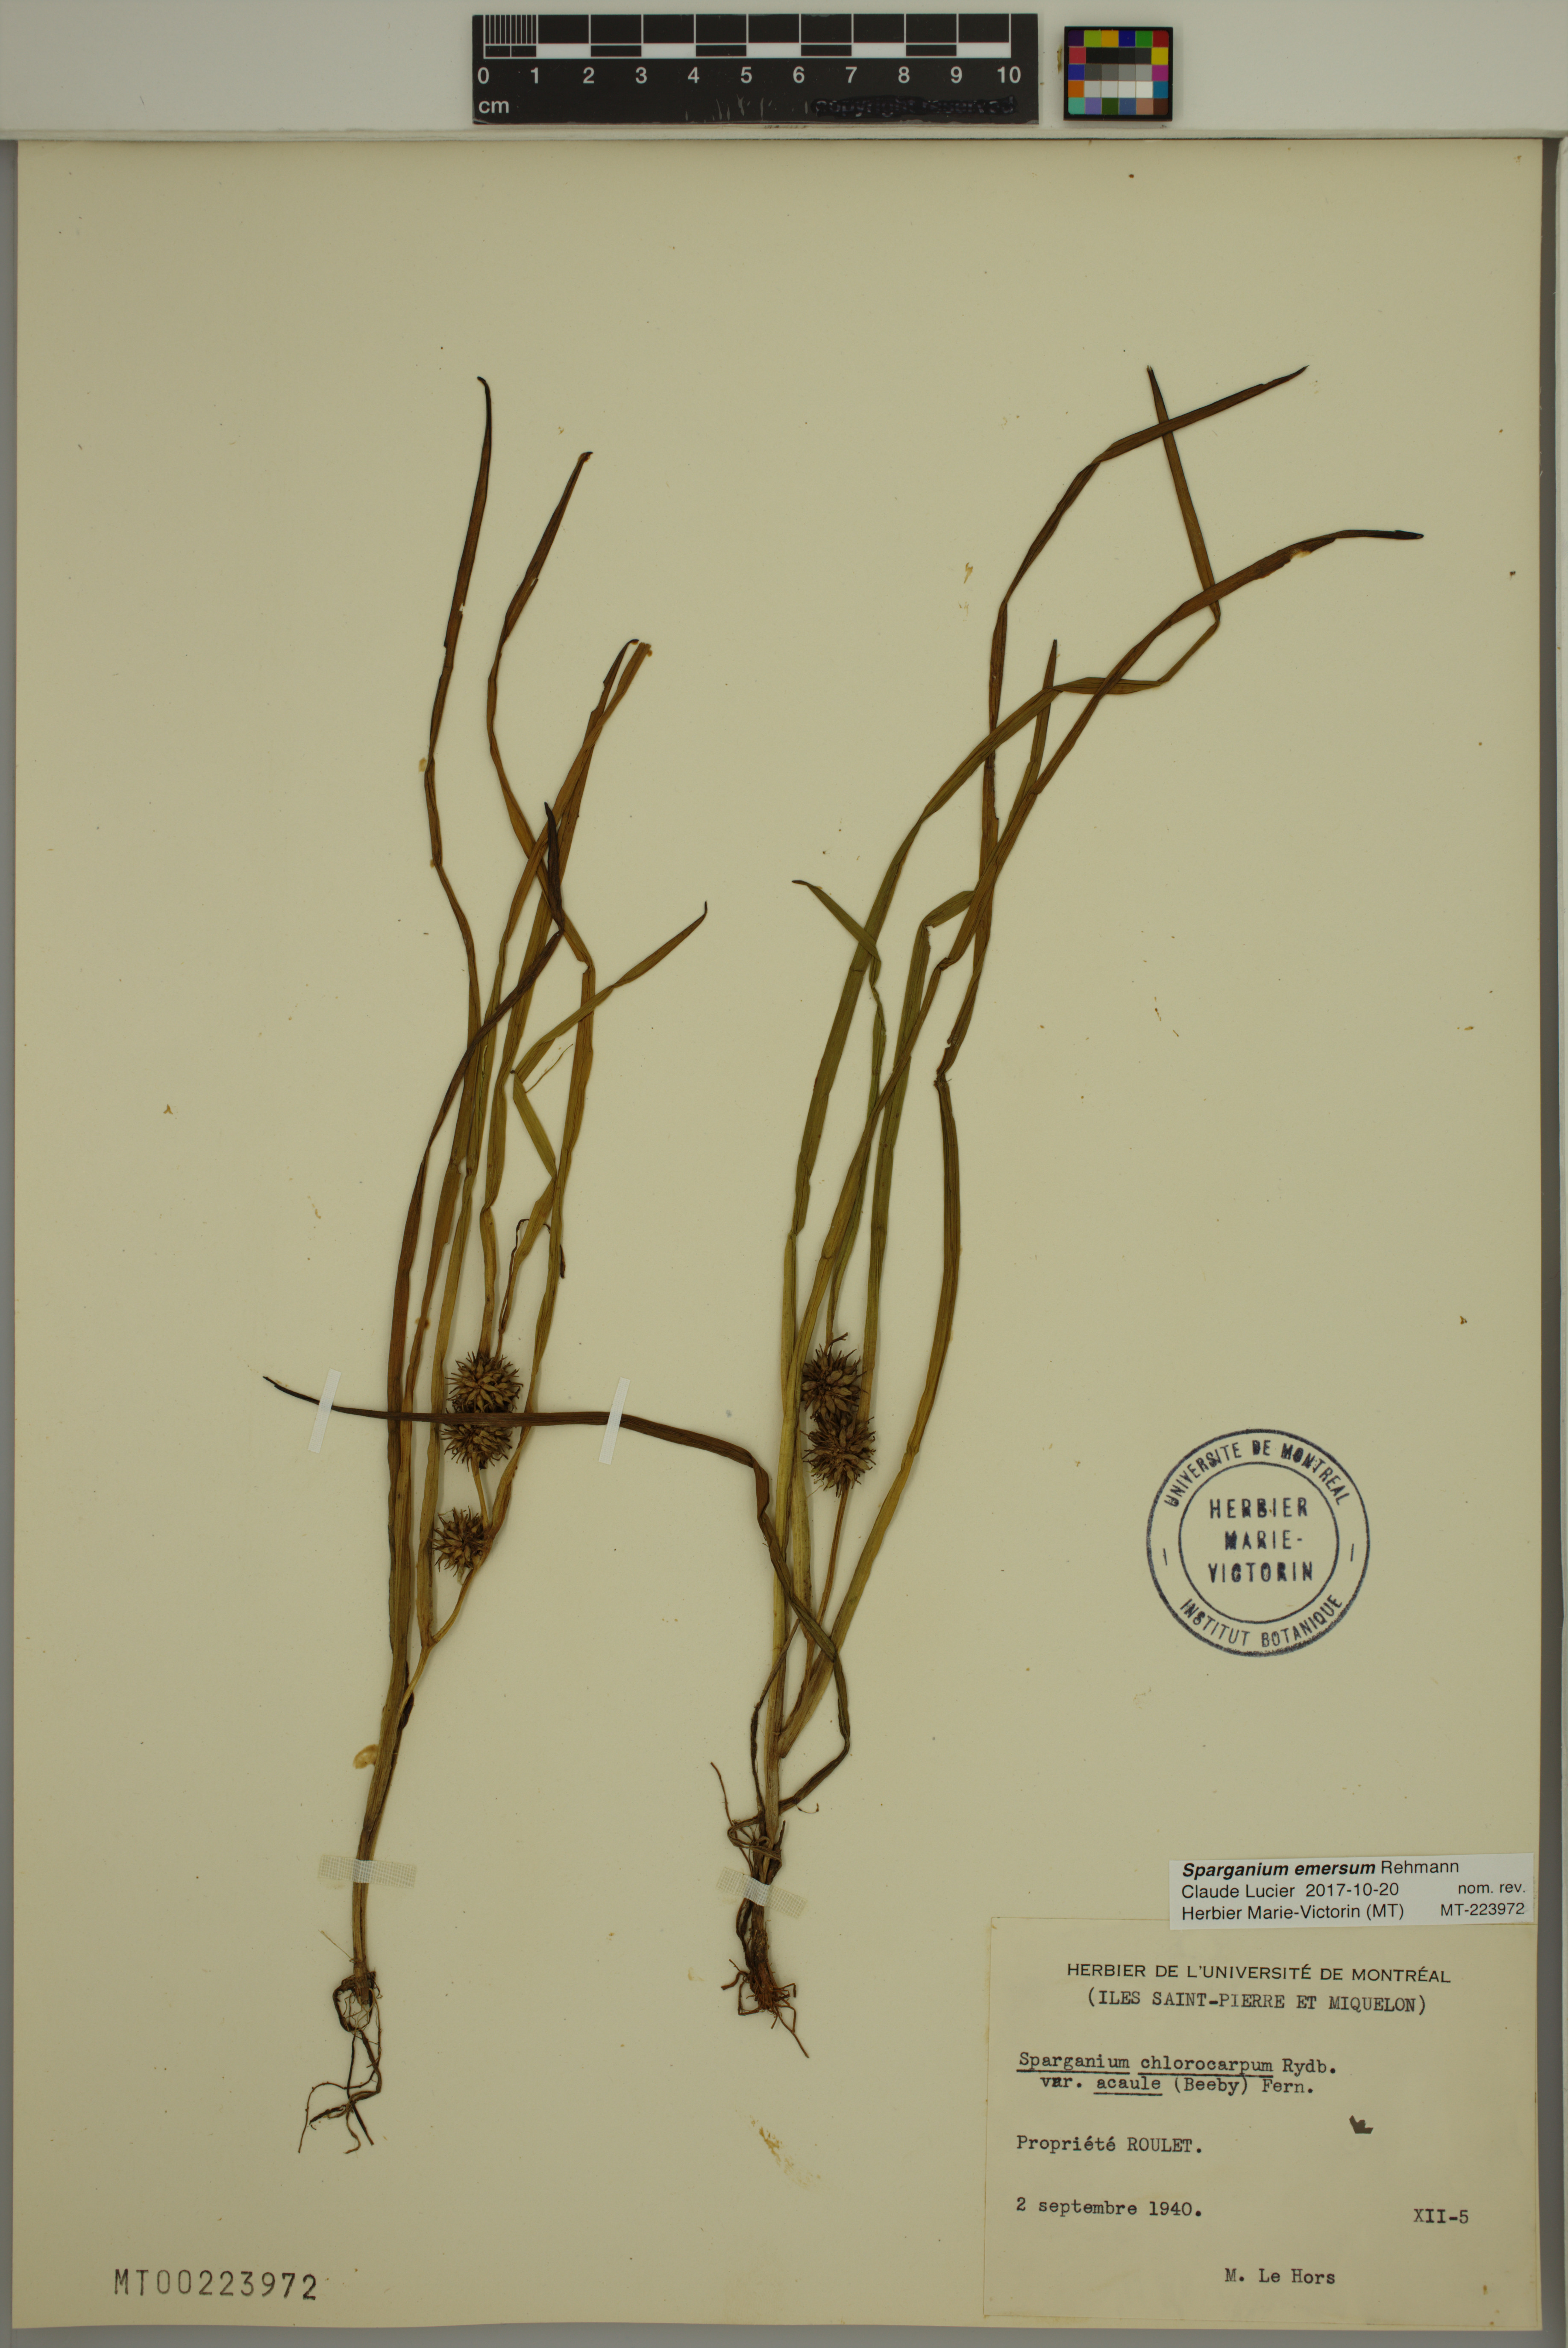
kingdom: Plantae
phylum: Tracheophyta
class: Liliopsida
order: Poales
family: Typhaceae
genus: Sparganium
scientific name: Sparganium emersum
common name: Unbranched bur-reed
